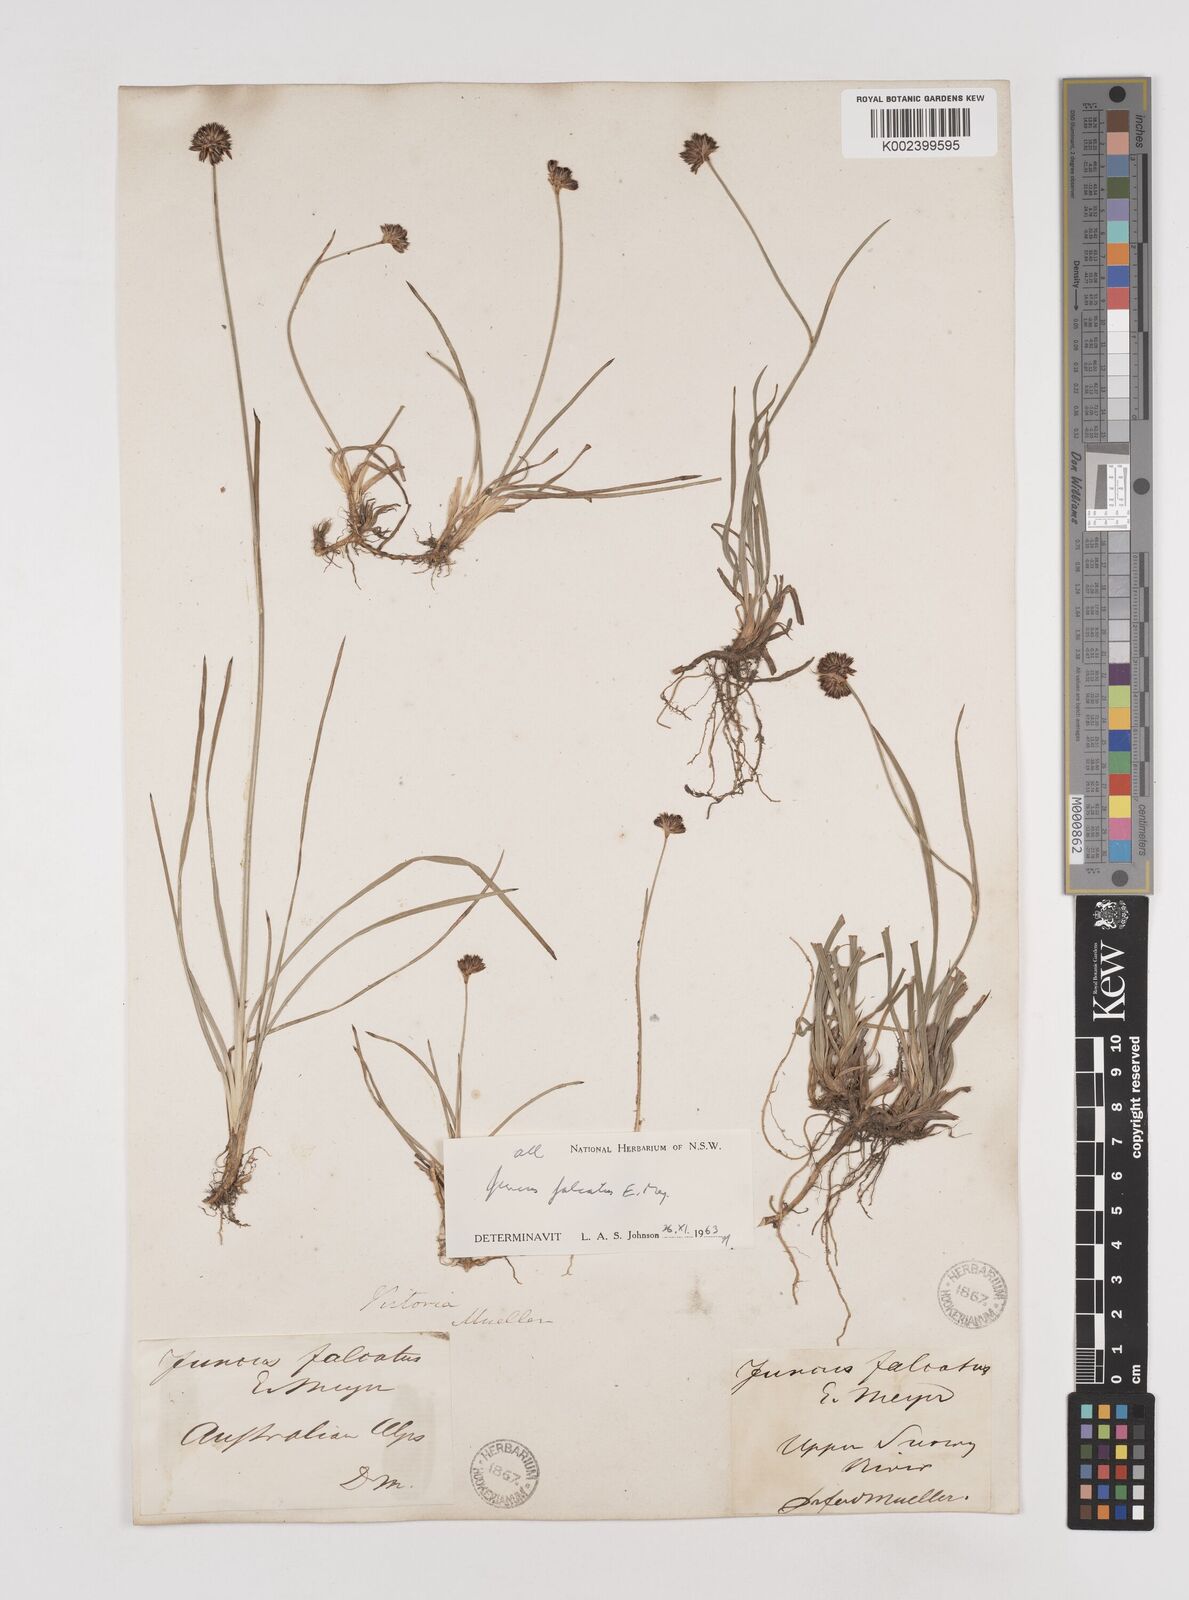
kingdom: Plantae
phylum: Tracheophyta
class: Liliopsida
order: Poales
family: Juncaceae
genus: Juncus
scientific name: Juncus falcatus
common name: Sickle-leaf rush
